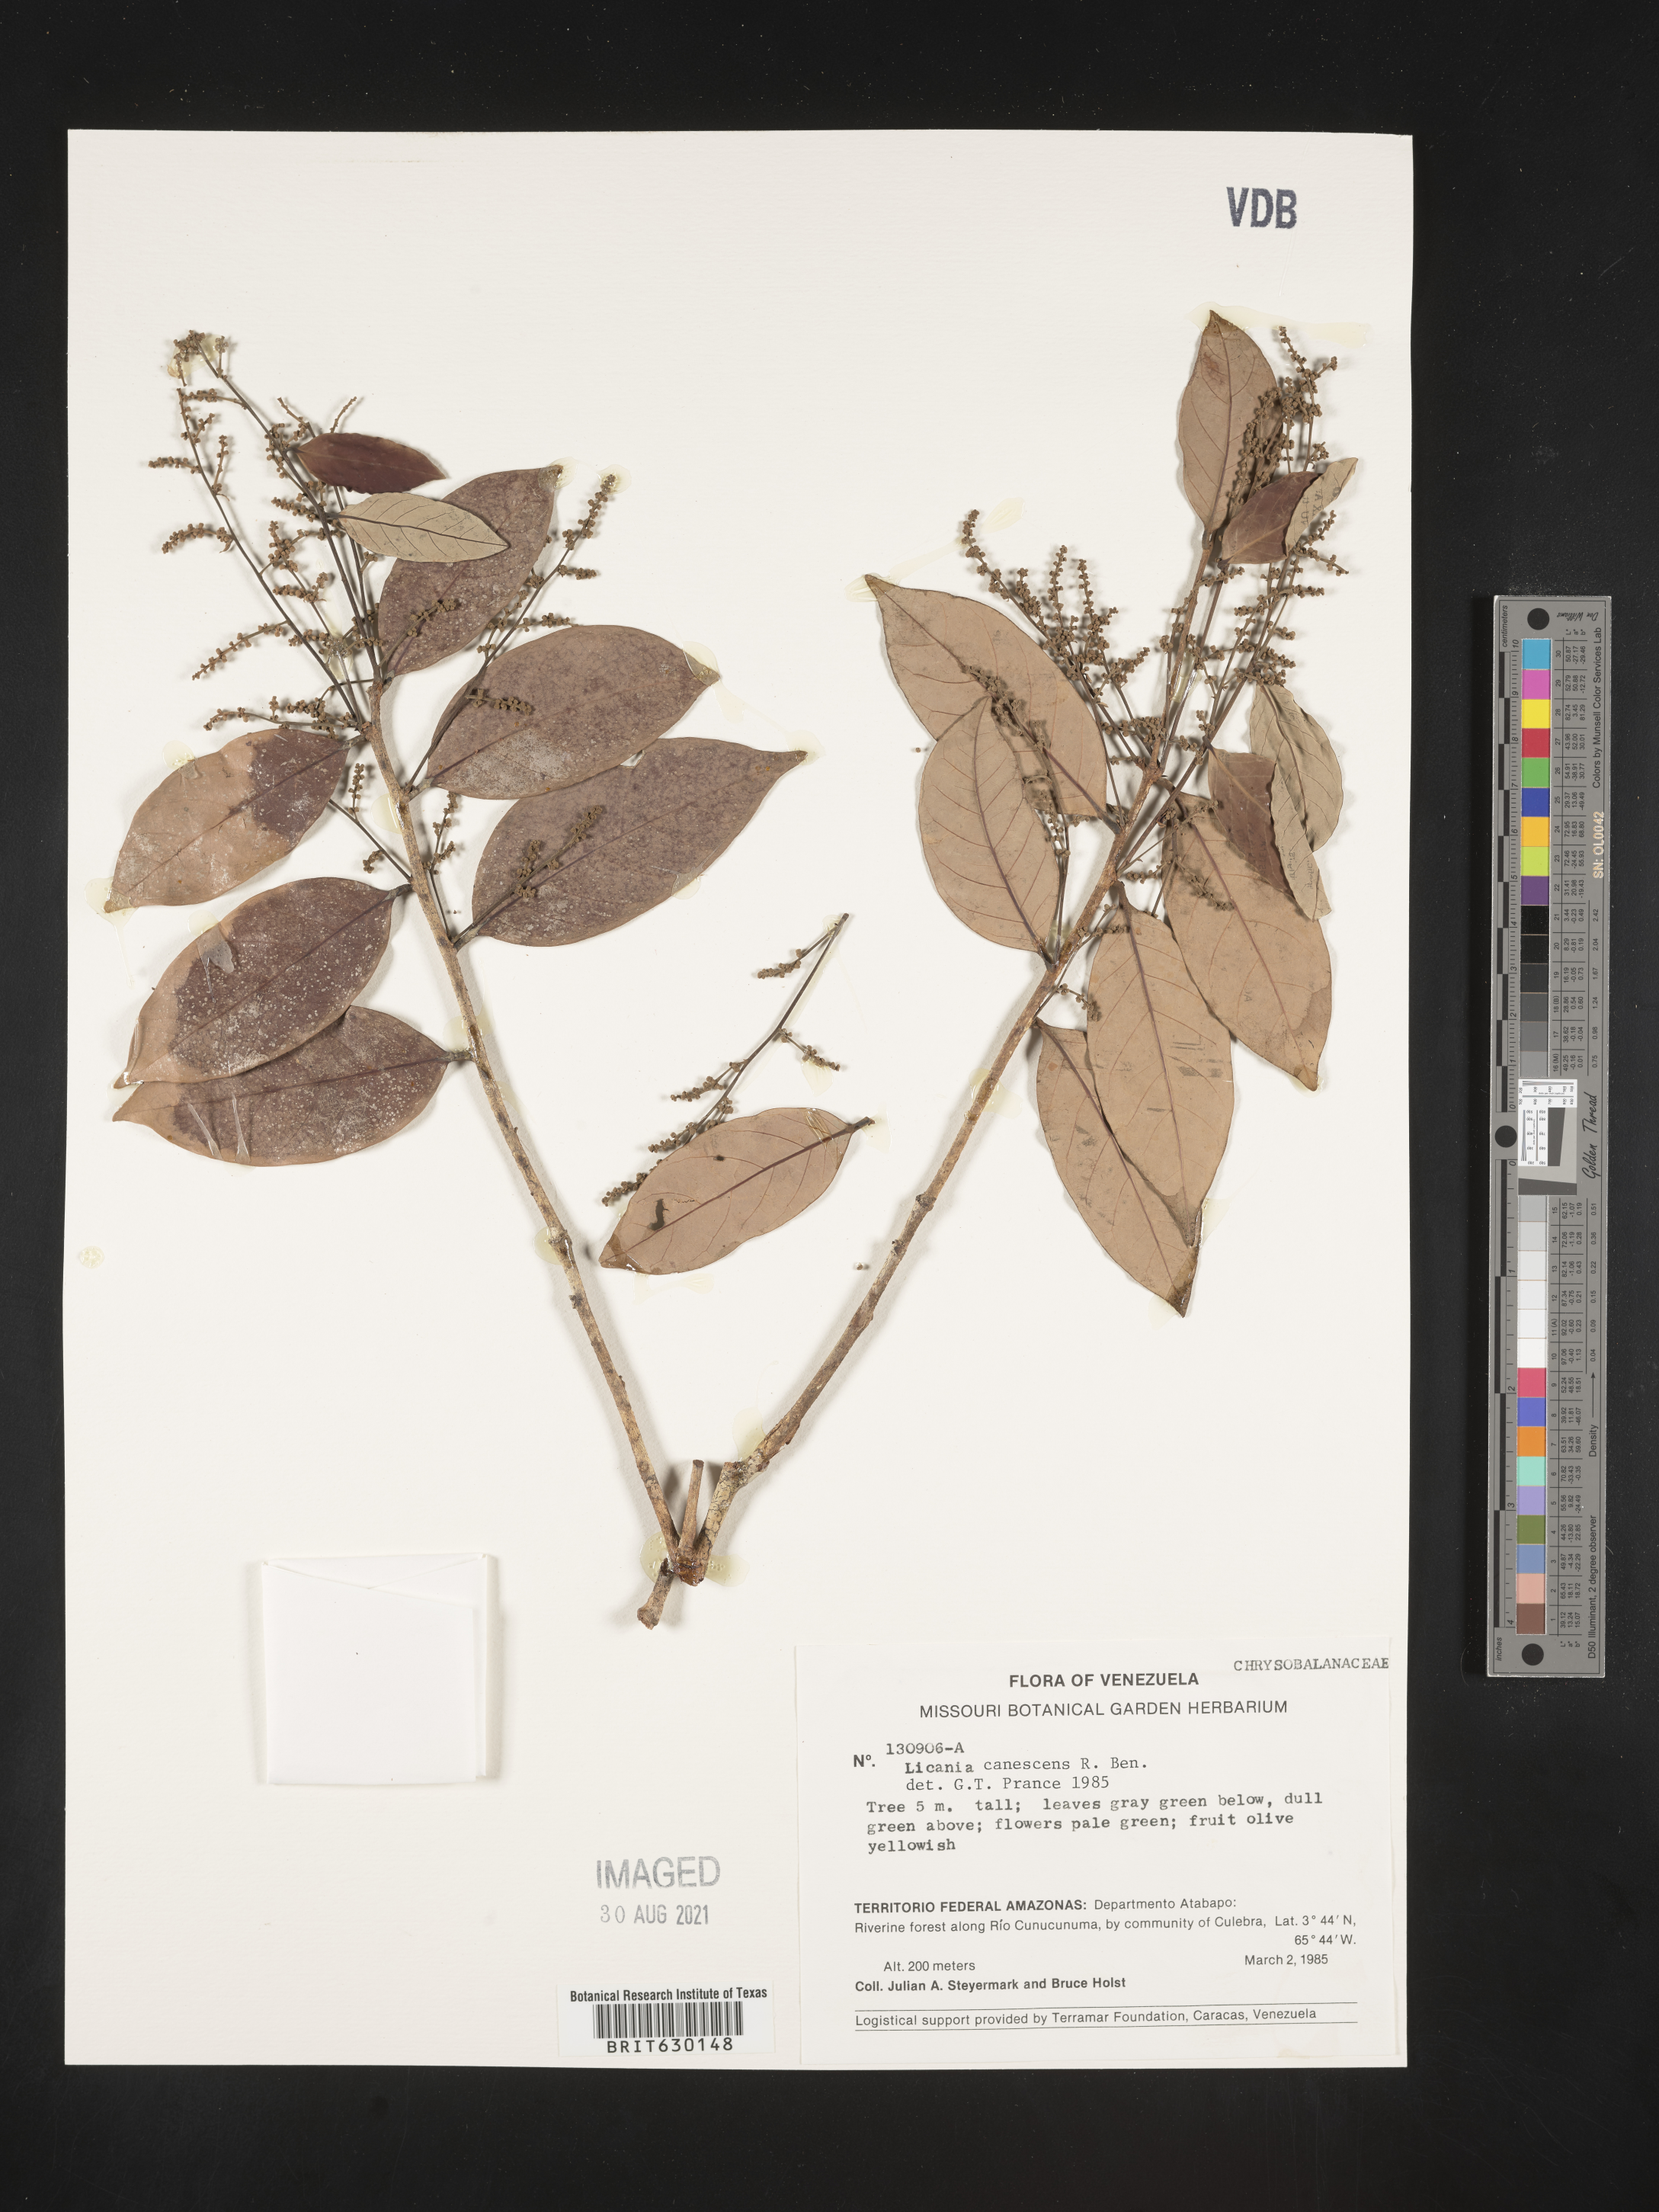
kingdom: Plantae
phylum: Tracheophyta
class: Magnoliopsida
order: Malpighiales
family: Chrysobalanaceae
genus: Licania
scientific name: Licania canescens
